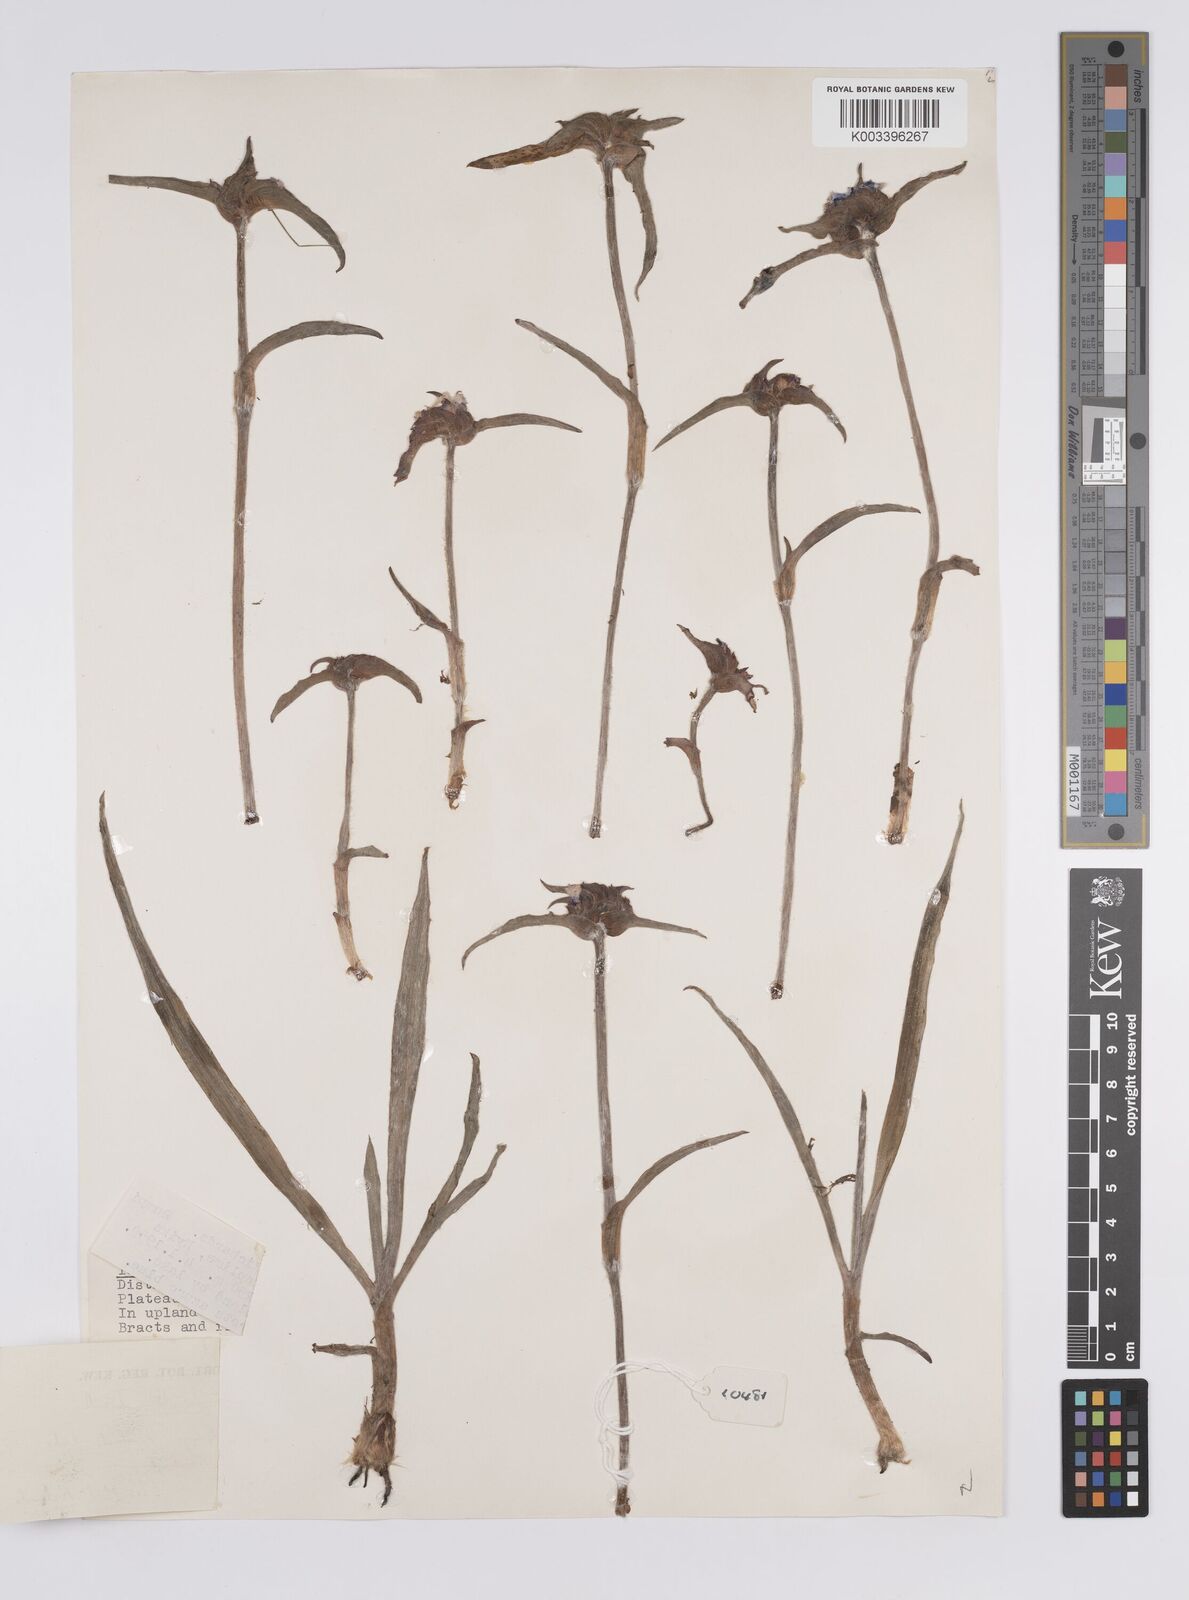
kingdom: Plantae
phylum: Tracheophyta
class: Liliopsida
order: Commelinales
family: Commelinaceae
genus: Cyanotis
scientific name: Cyanotis longifolia
